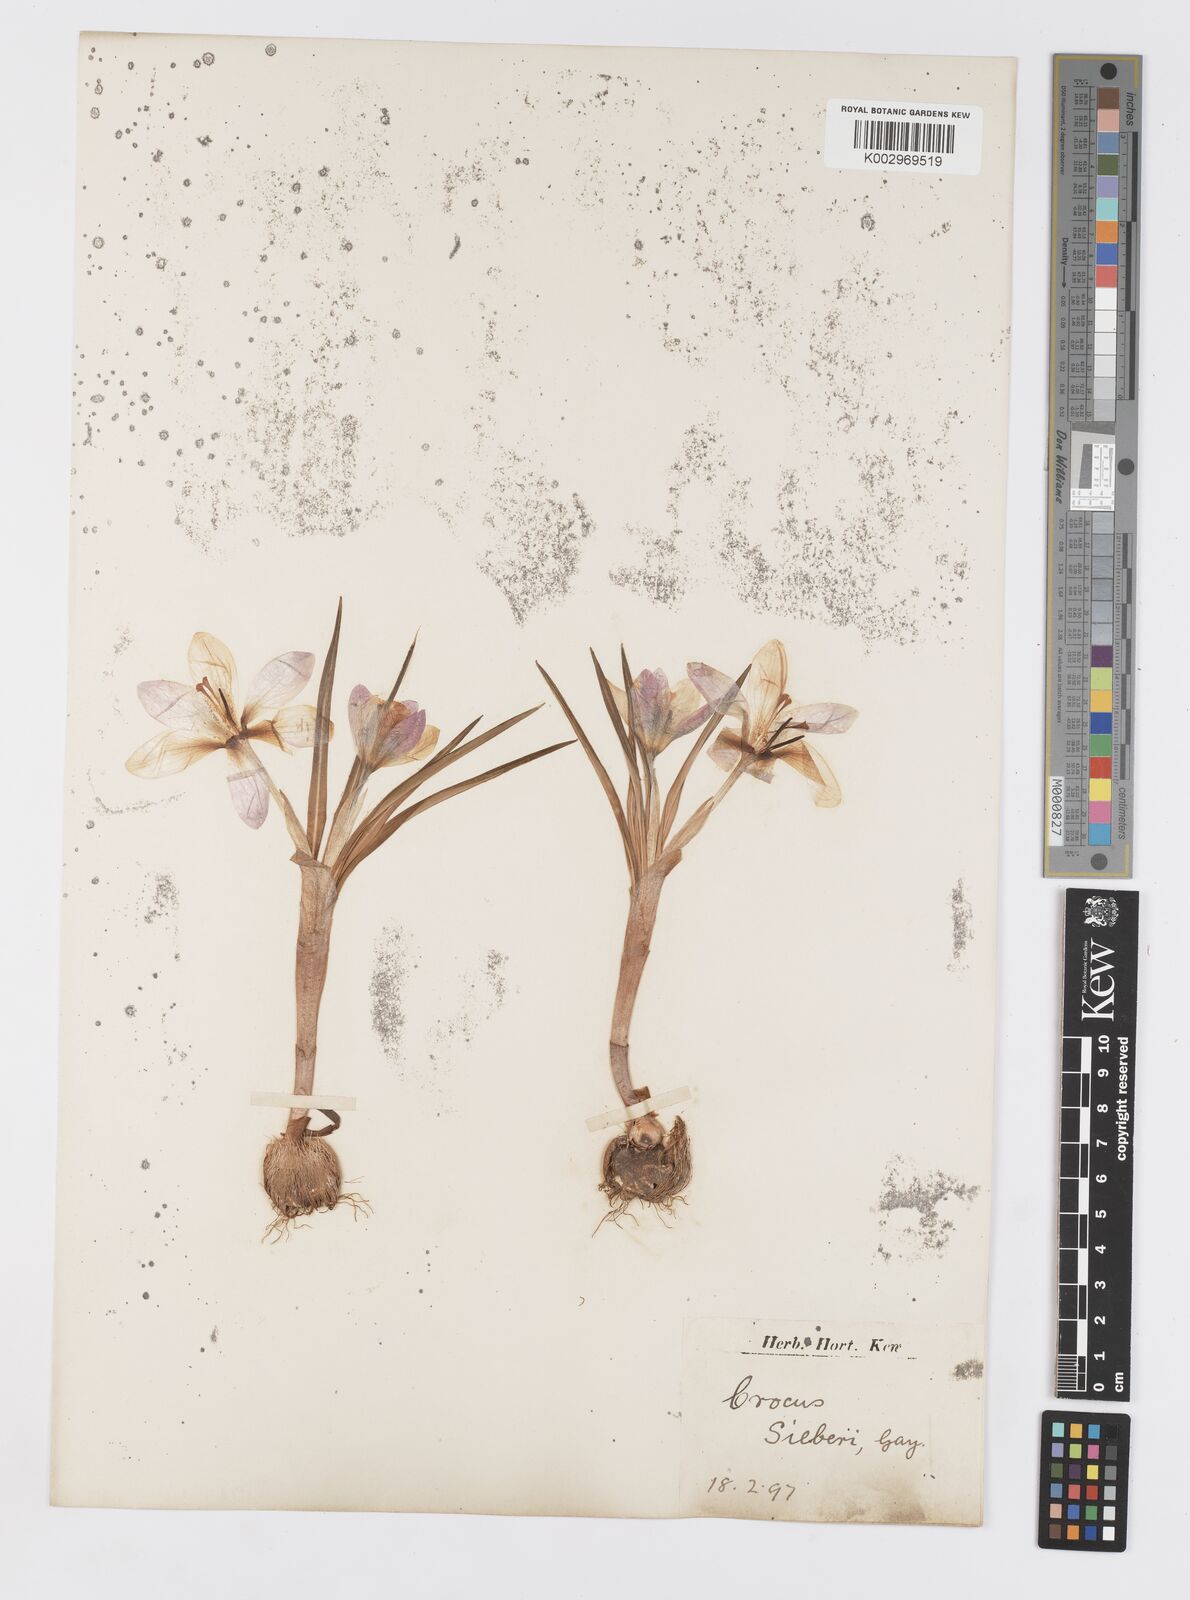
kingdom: Plantae
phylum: Tracheophyta
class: Liliopsida
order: Asparagales
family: Iridaceae
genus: Crocus
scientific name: Crocus sieberi
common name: Sieber's crocus
